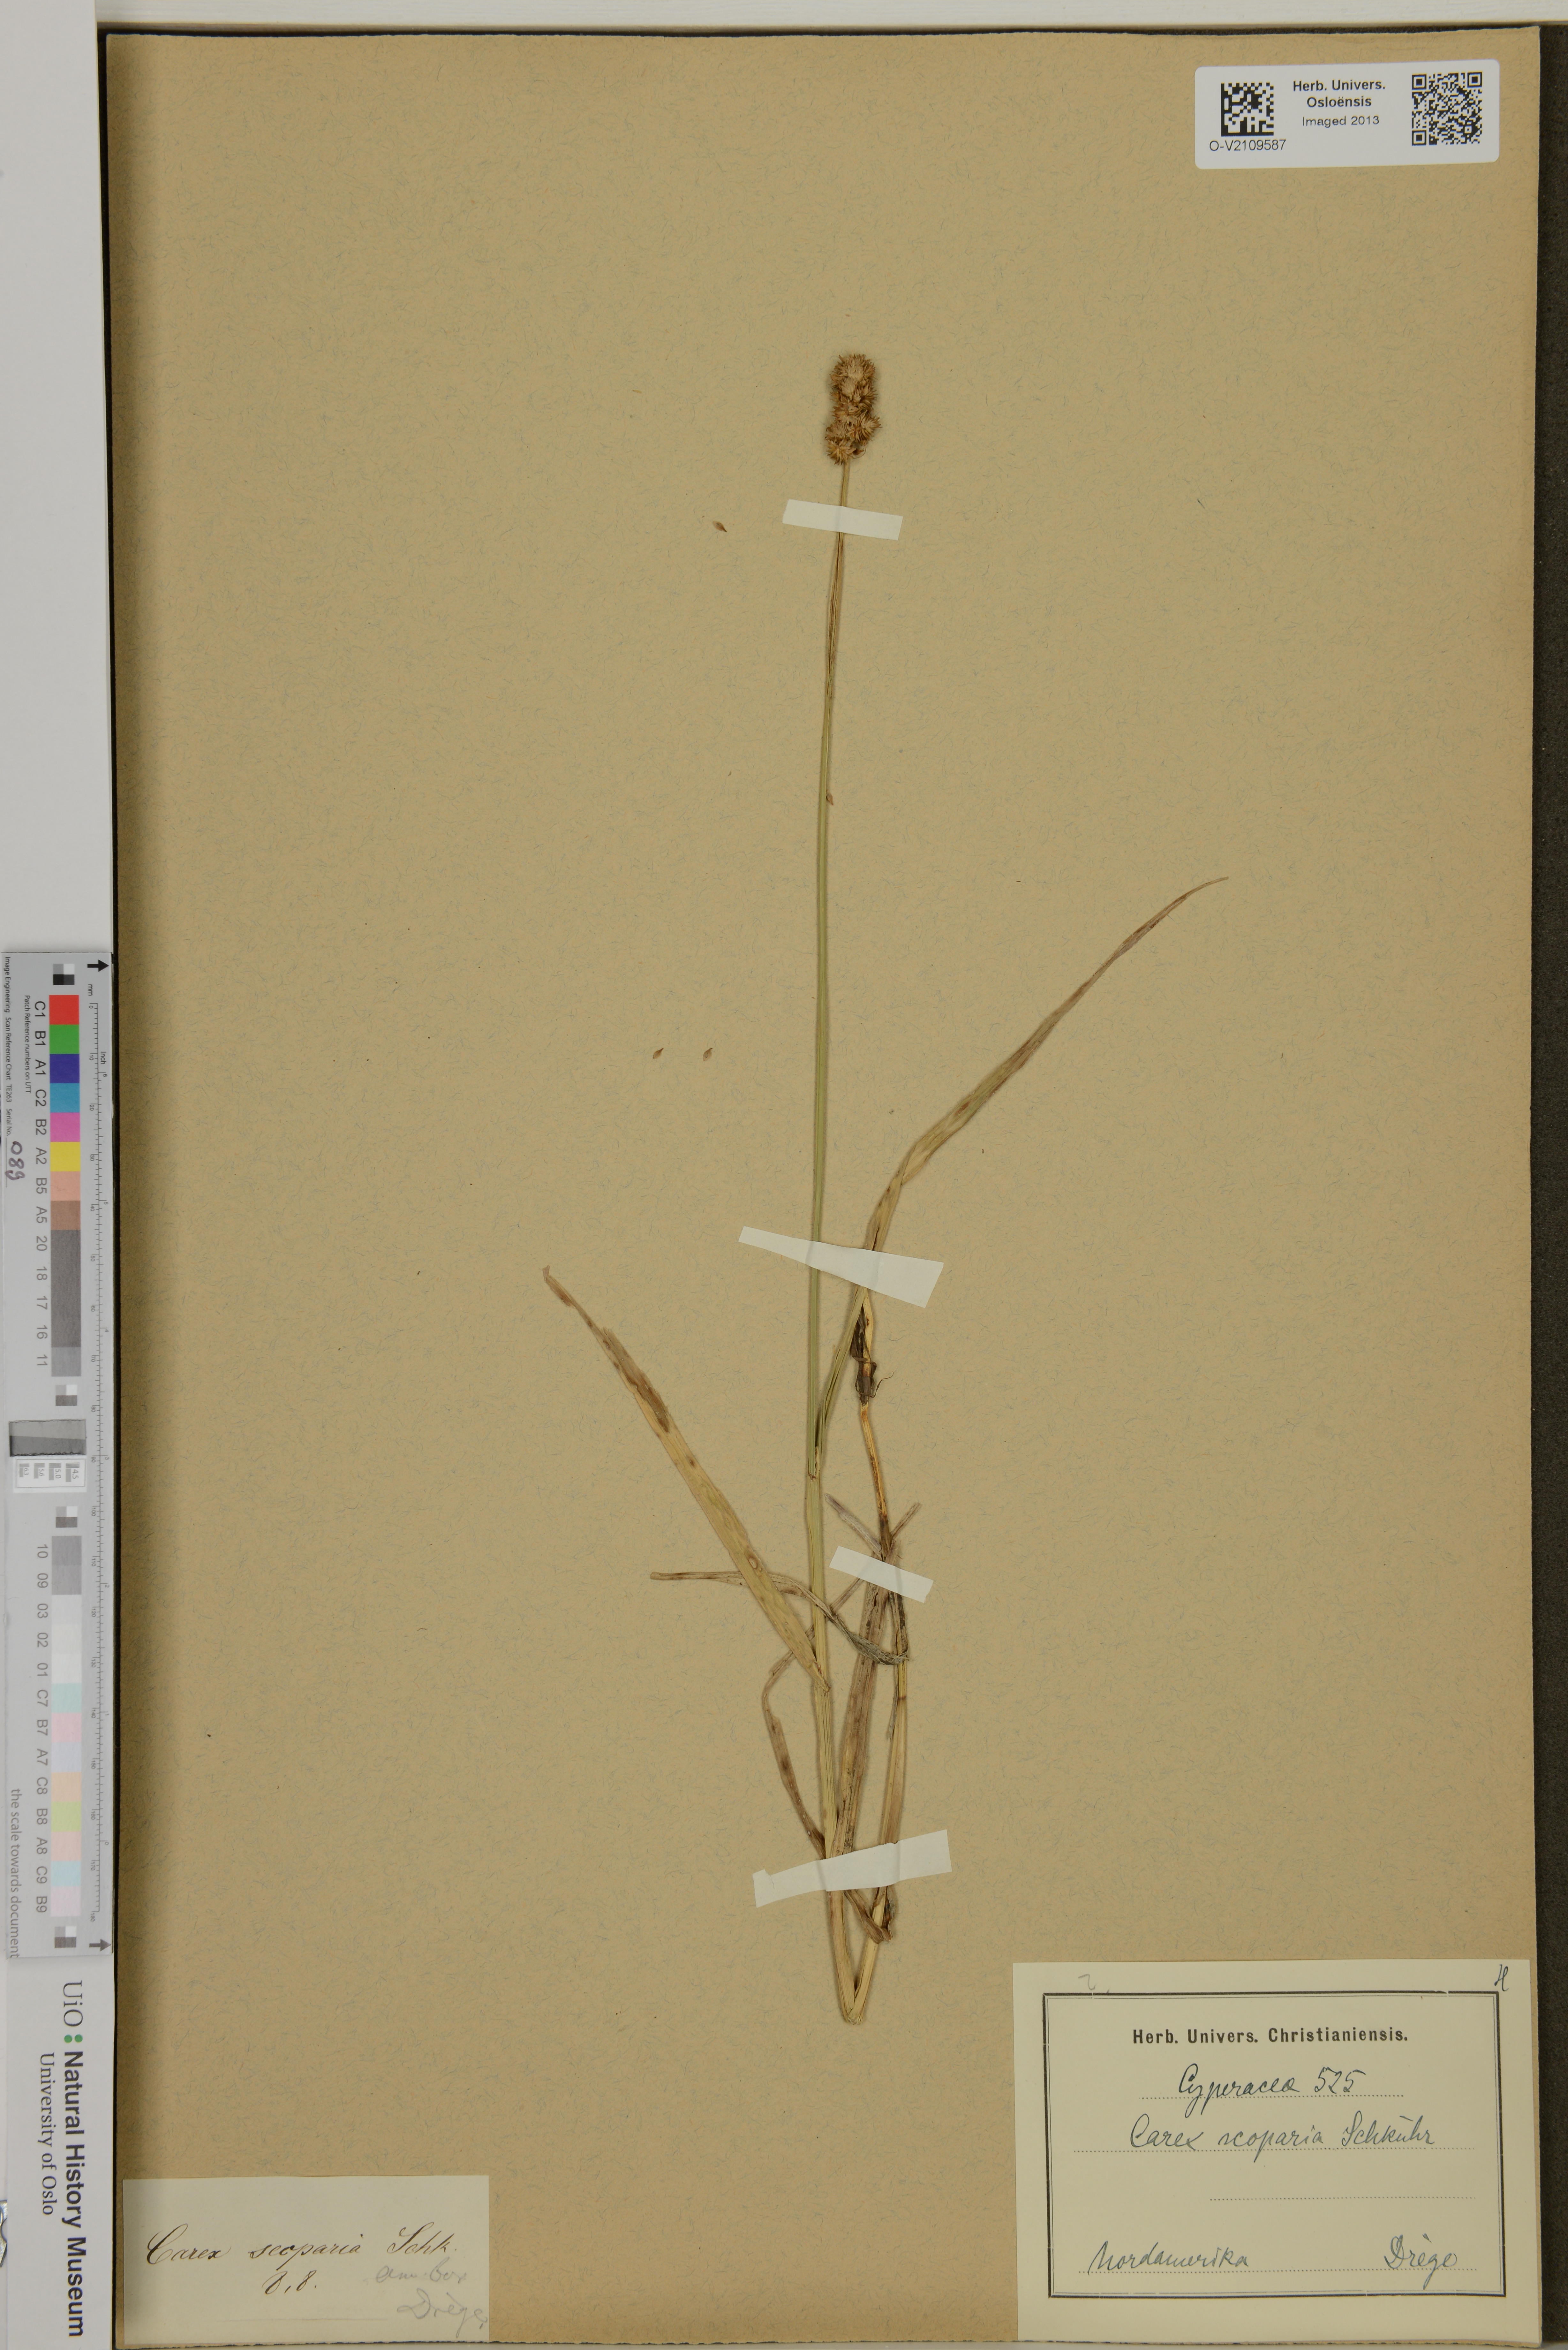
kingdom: Plantae
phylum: Tracheophyta
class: Liliopsida
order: Poales
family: Cyperaceae
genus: Carex
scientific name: Carex scoparia
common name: Broom sedge
